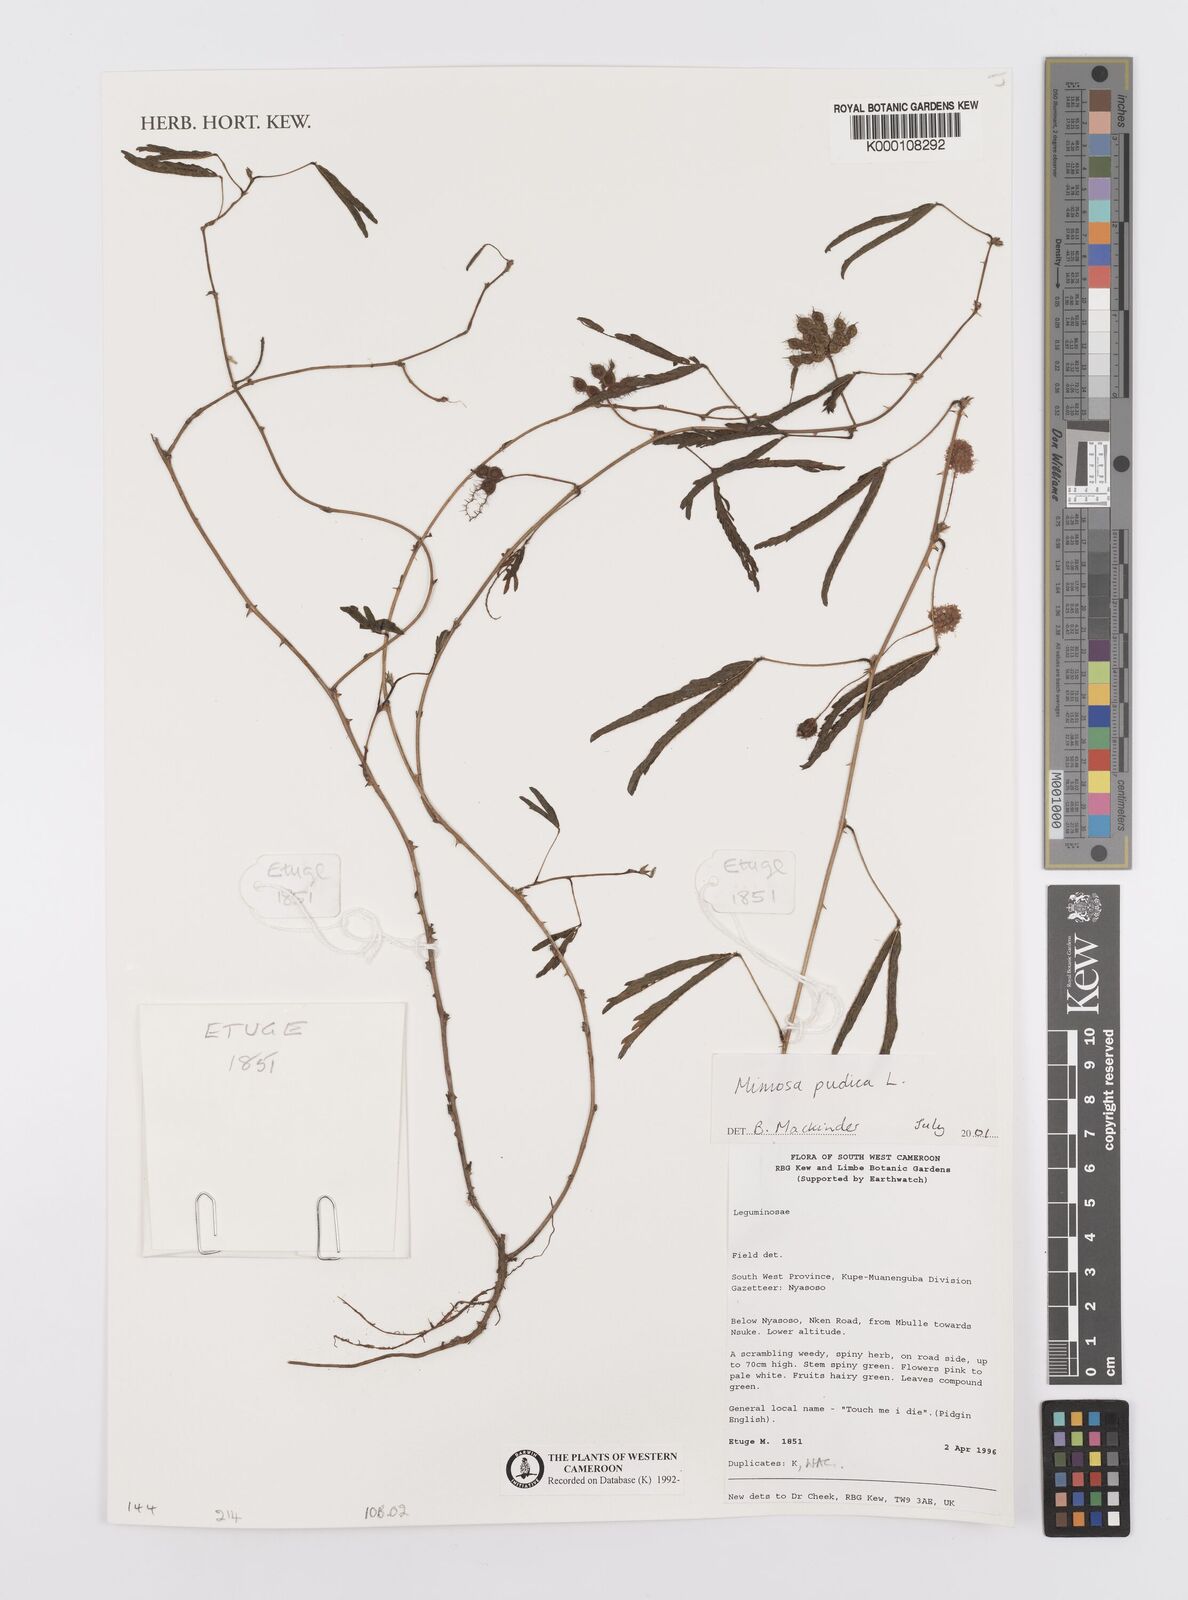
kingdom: Plantae
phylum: Tracheophyta
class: Magnoliopsida
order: Fabales
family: Fabaceae
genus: Mimosa
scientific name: Mimosa pudica
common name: Sensitive plant
